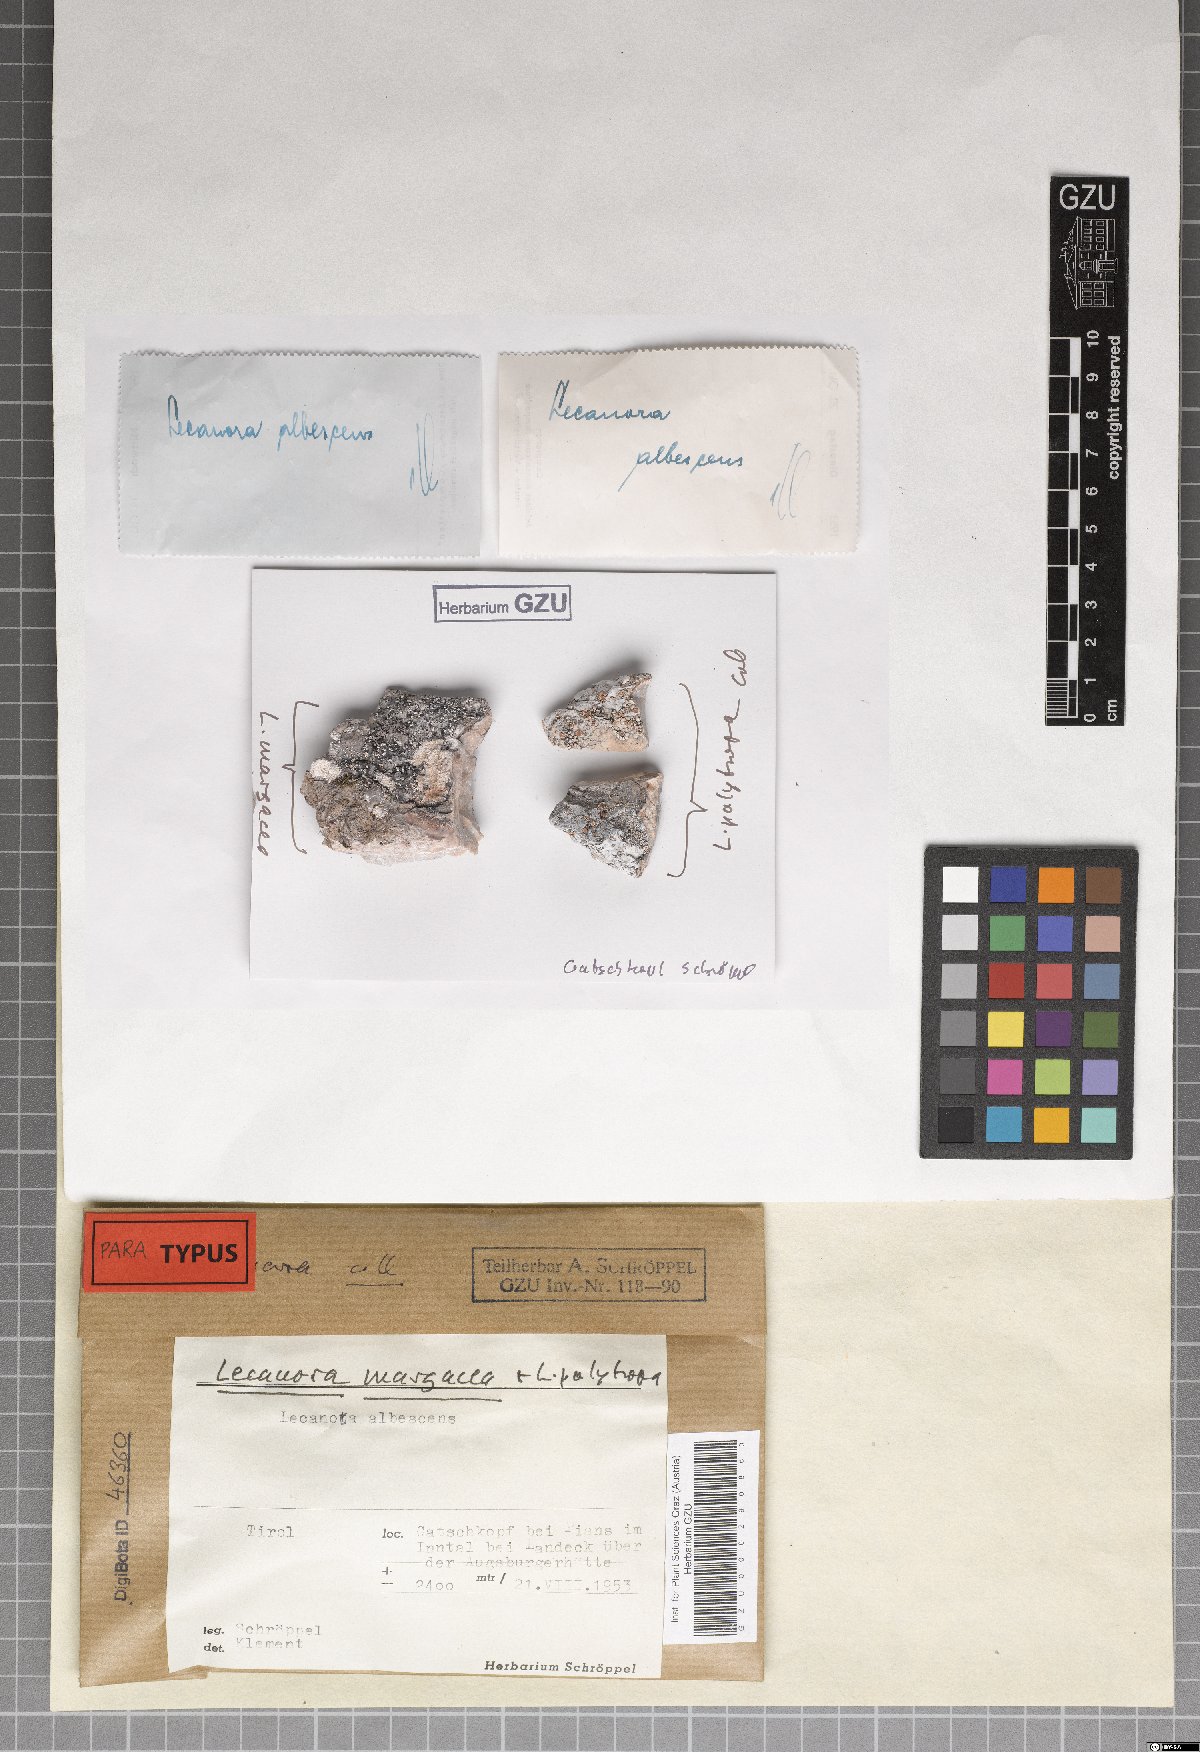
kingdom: Fungi
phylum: Ascomycota
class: Lecanoromycetes
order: Lecanorales
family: Lecanoraceae
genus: Lecanora
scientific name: Lecanora margacea
